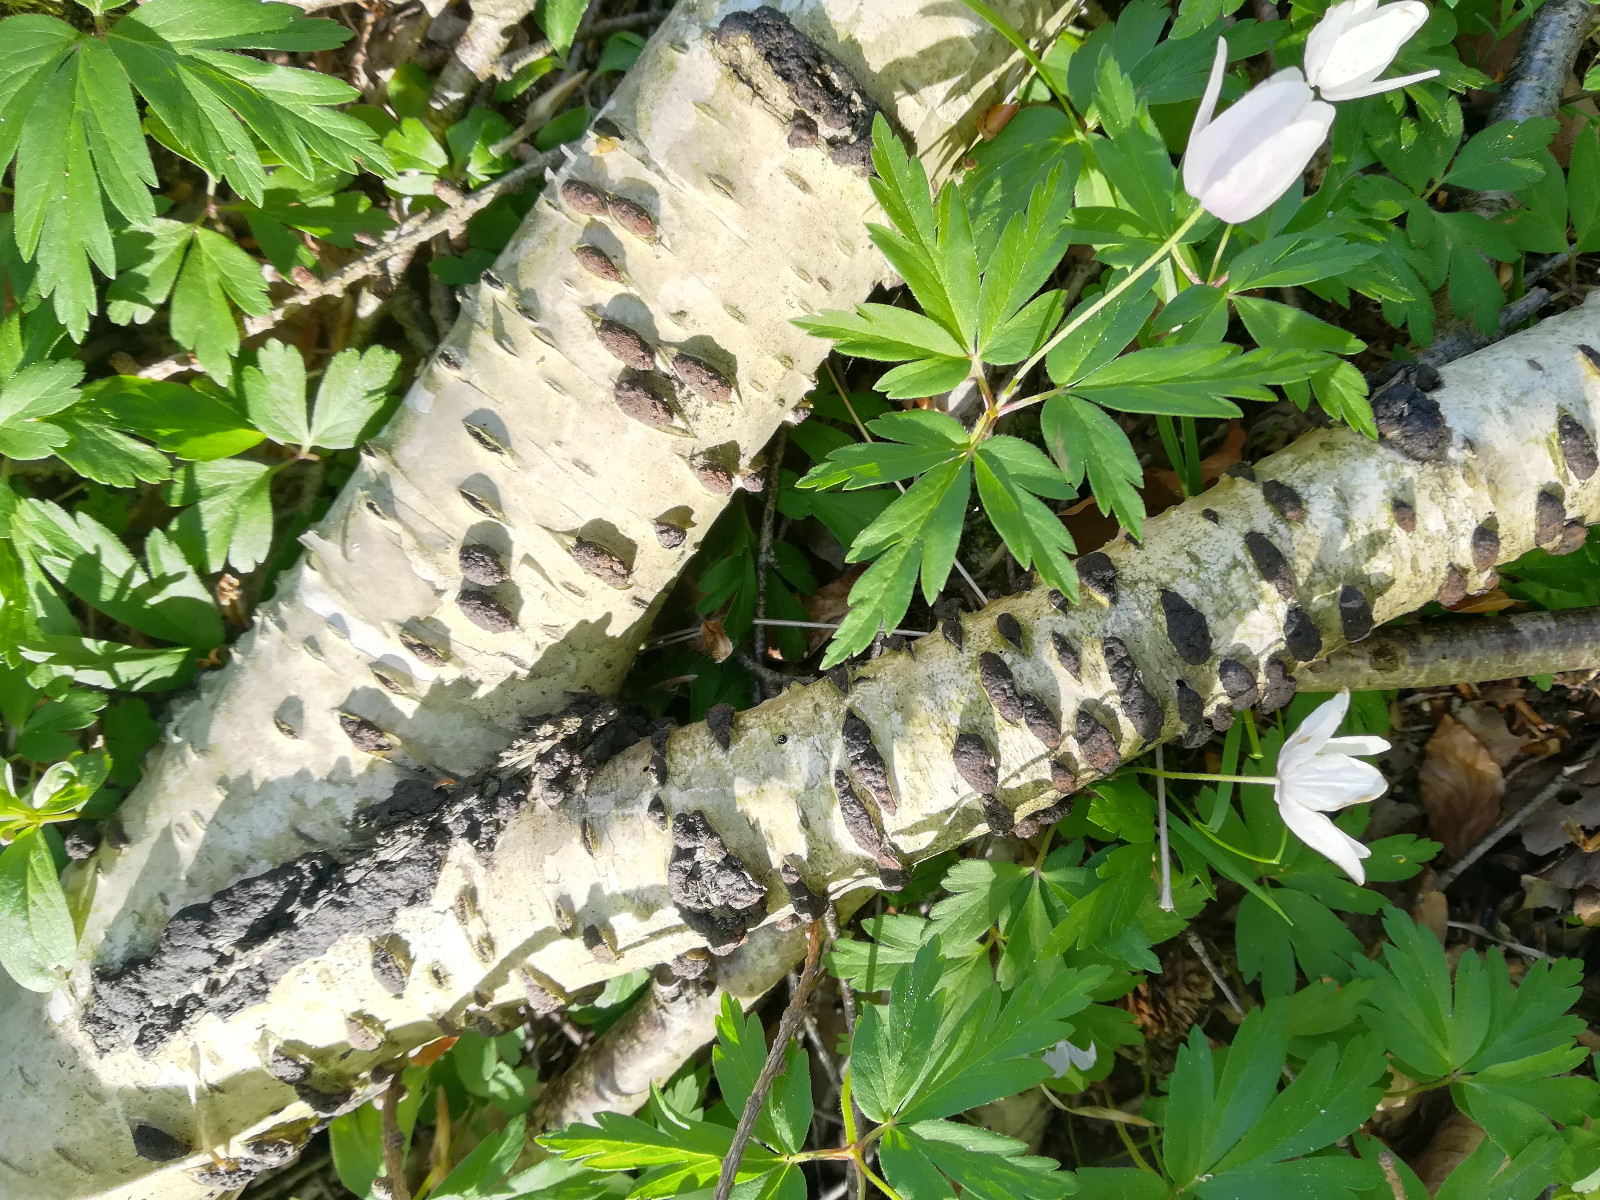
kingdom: Fungi
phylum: Ascomycota
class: Sordariomycetes
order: Xylariales
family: Hypoxylaceae
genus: Jackrogersella
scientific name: Jackrogersella multiformis
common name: foranderlig kulbær
